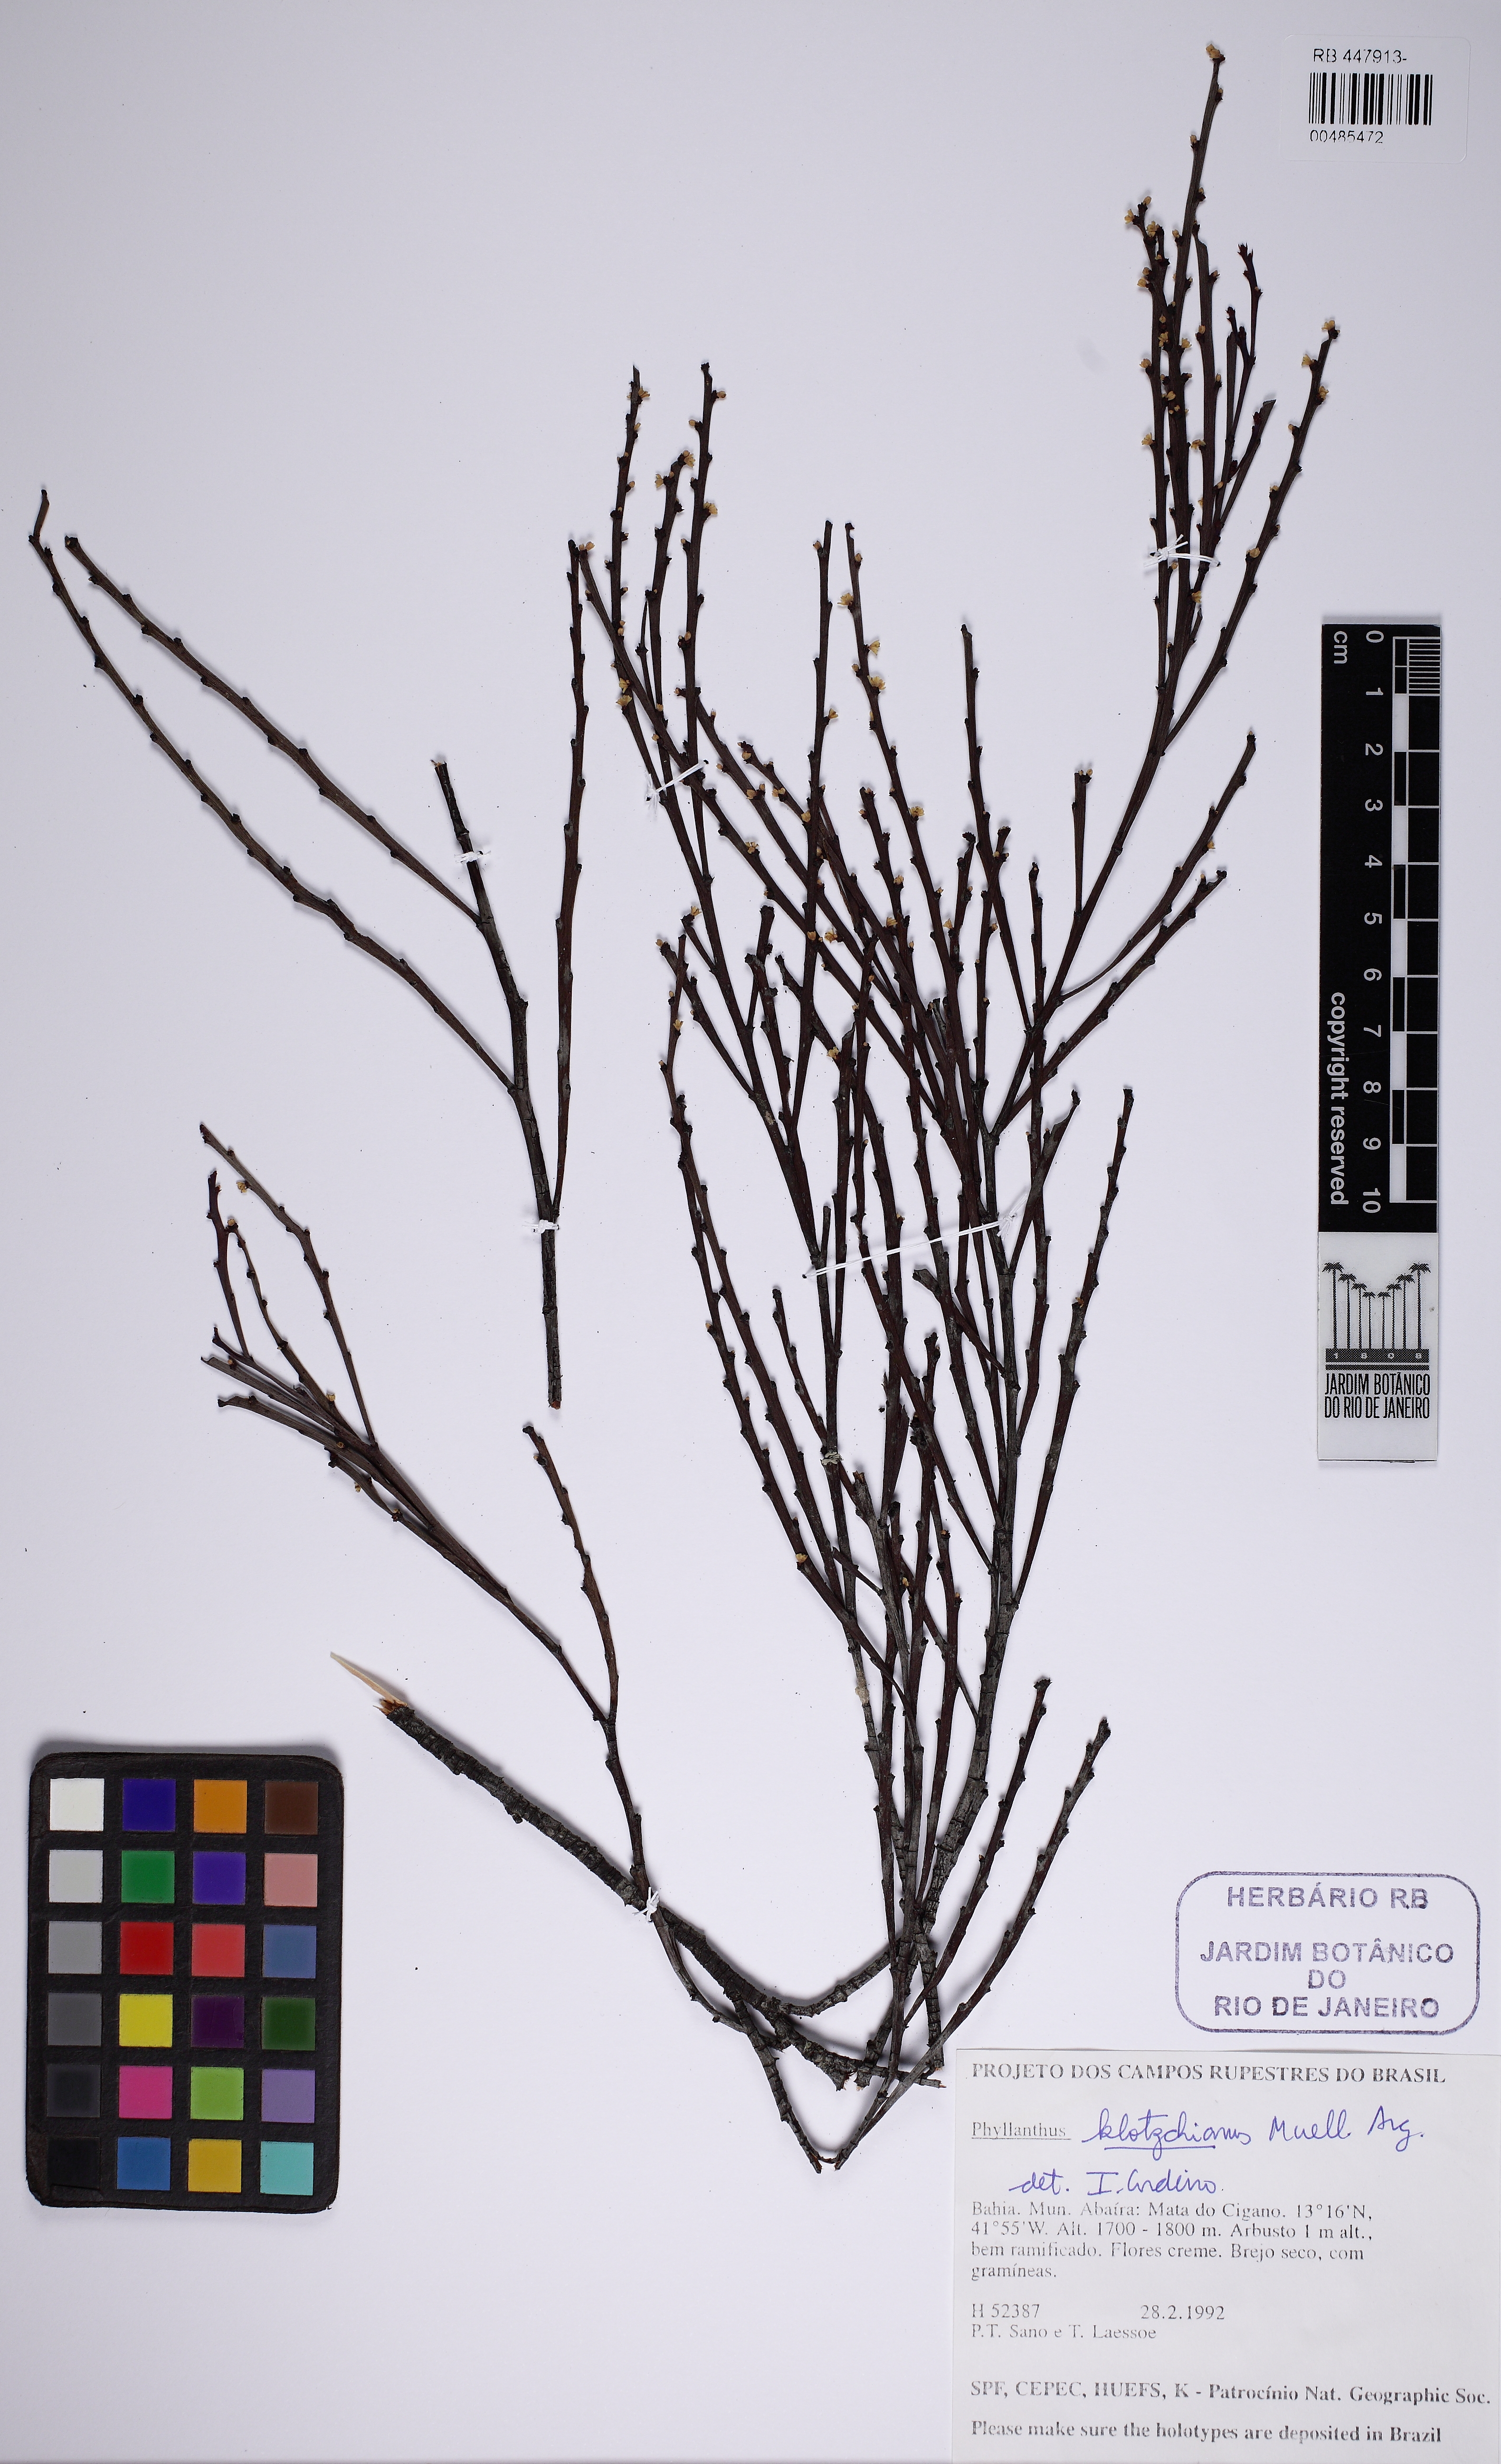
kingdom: Plantae
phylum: Tracheophyta
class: Magnoliopsida
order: Malpighiales
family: Phyllanthaceae
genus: Phyllanthus
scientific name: Phyllanthus robustus
